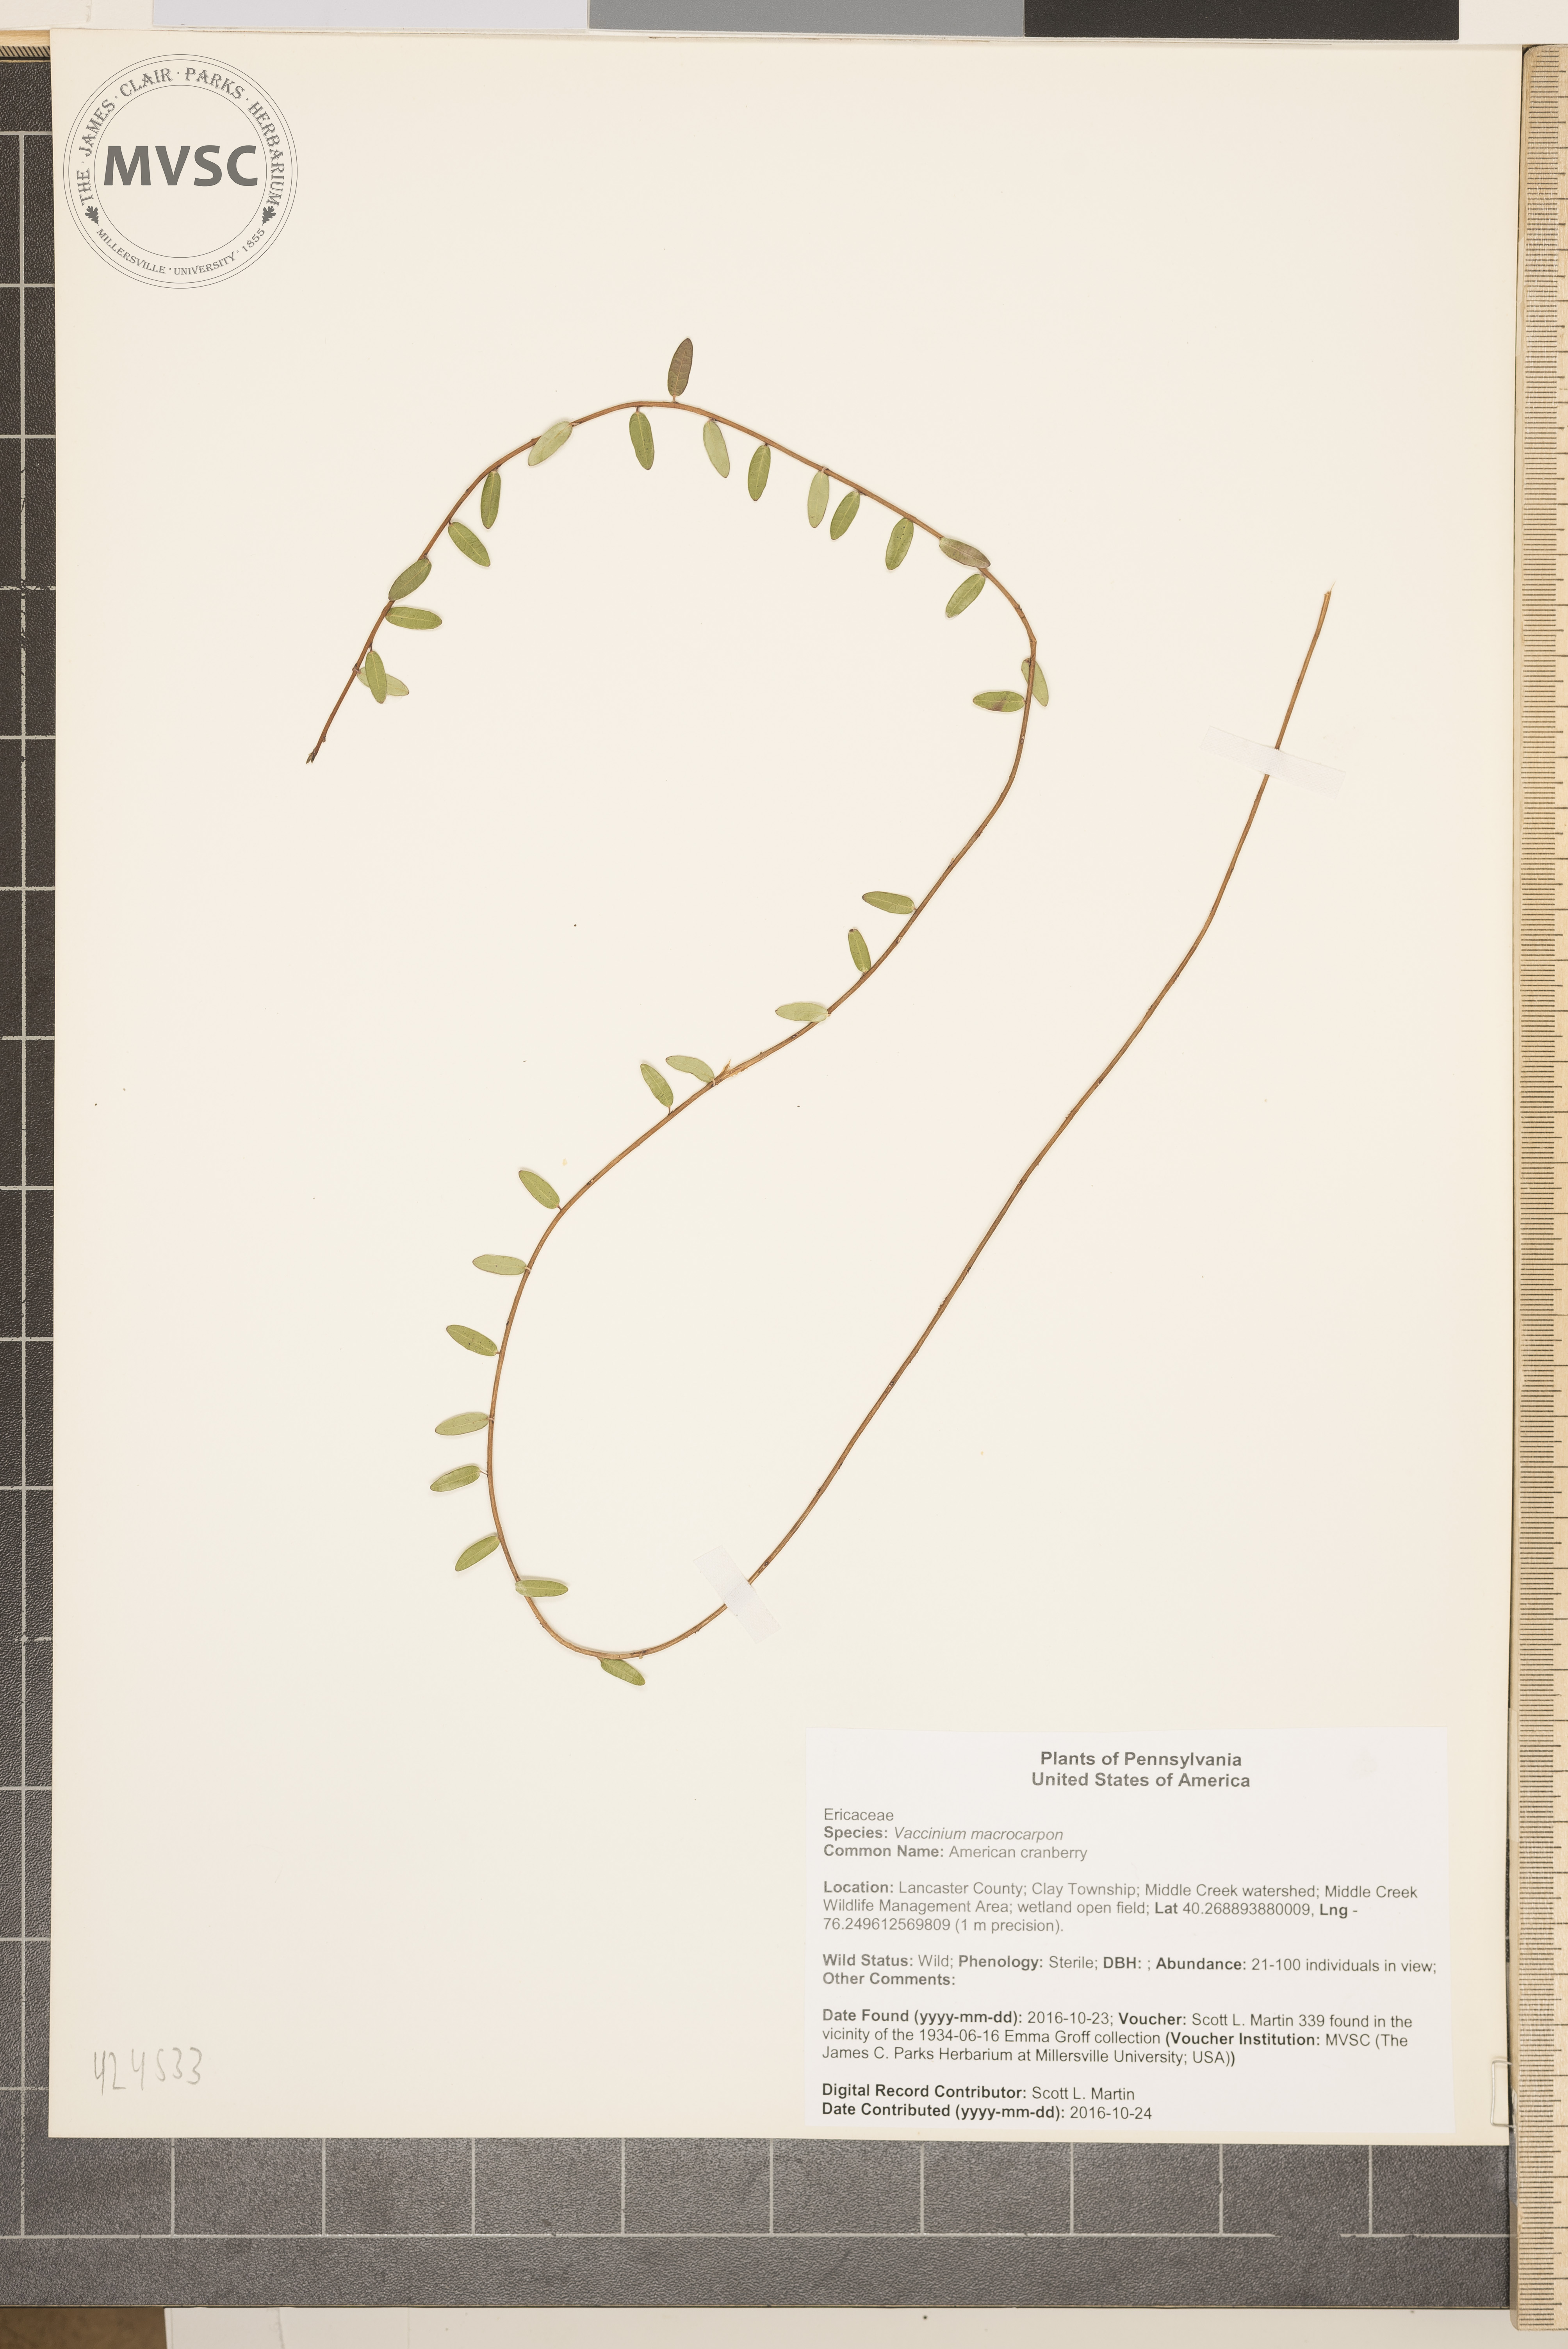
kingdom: Plantae
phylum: Tracheophyta
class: Magnoliopsida
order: Ericales
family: Ericaceae
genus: Vaccinium
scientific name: Vaccinium macrocarpon
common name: American cranberry
